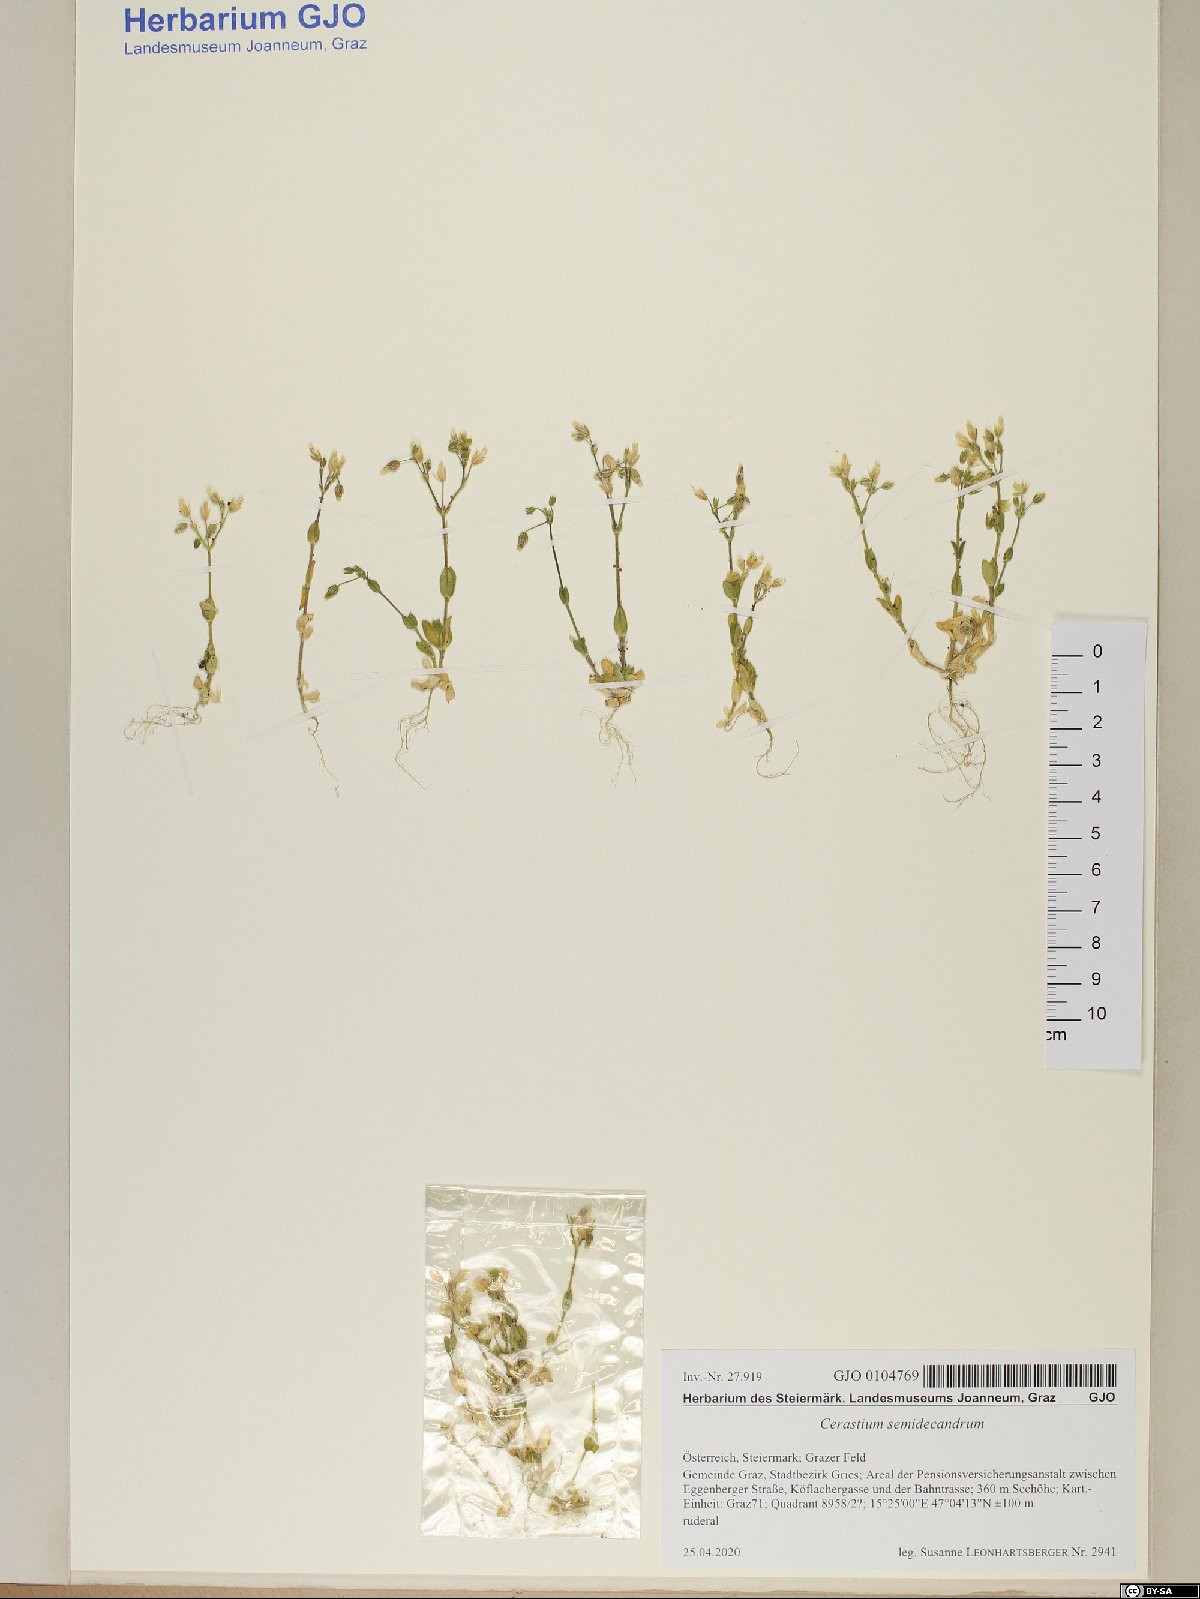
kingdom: Plantae
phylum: Tracheophyta
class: Magnoliopsida
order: Caryophyllales
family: Caryophyllaceae
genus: Cerastium
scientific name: Cerastium semidecandrum
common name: Little mouse-ear
